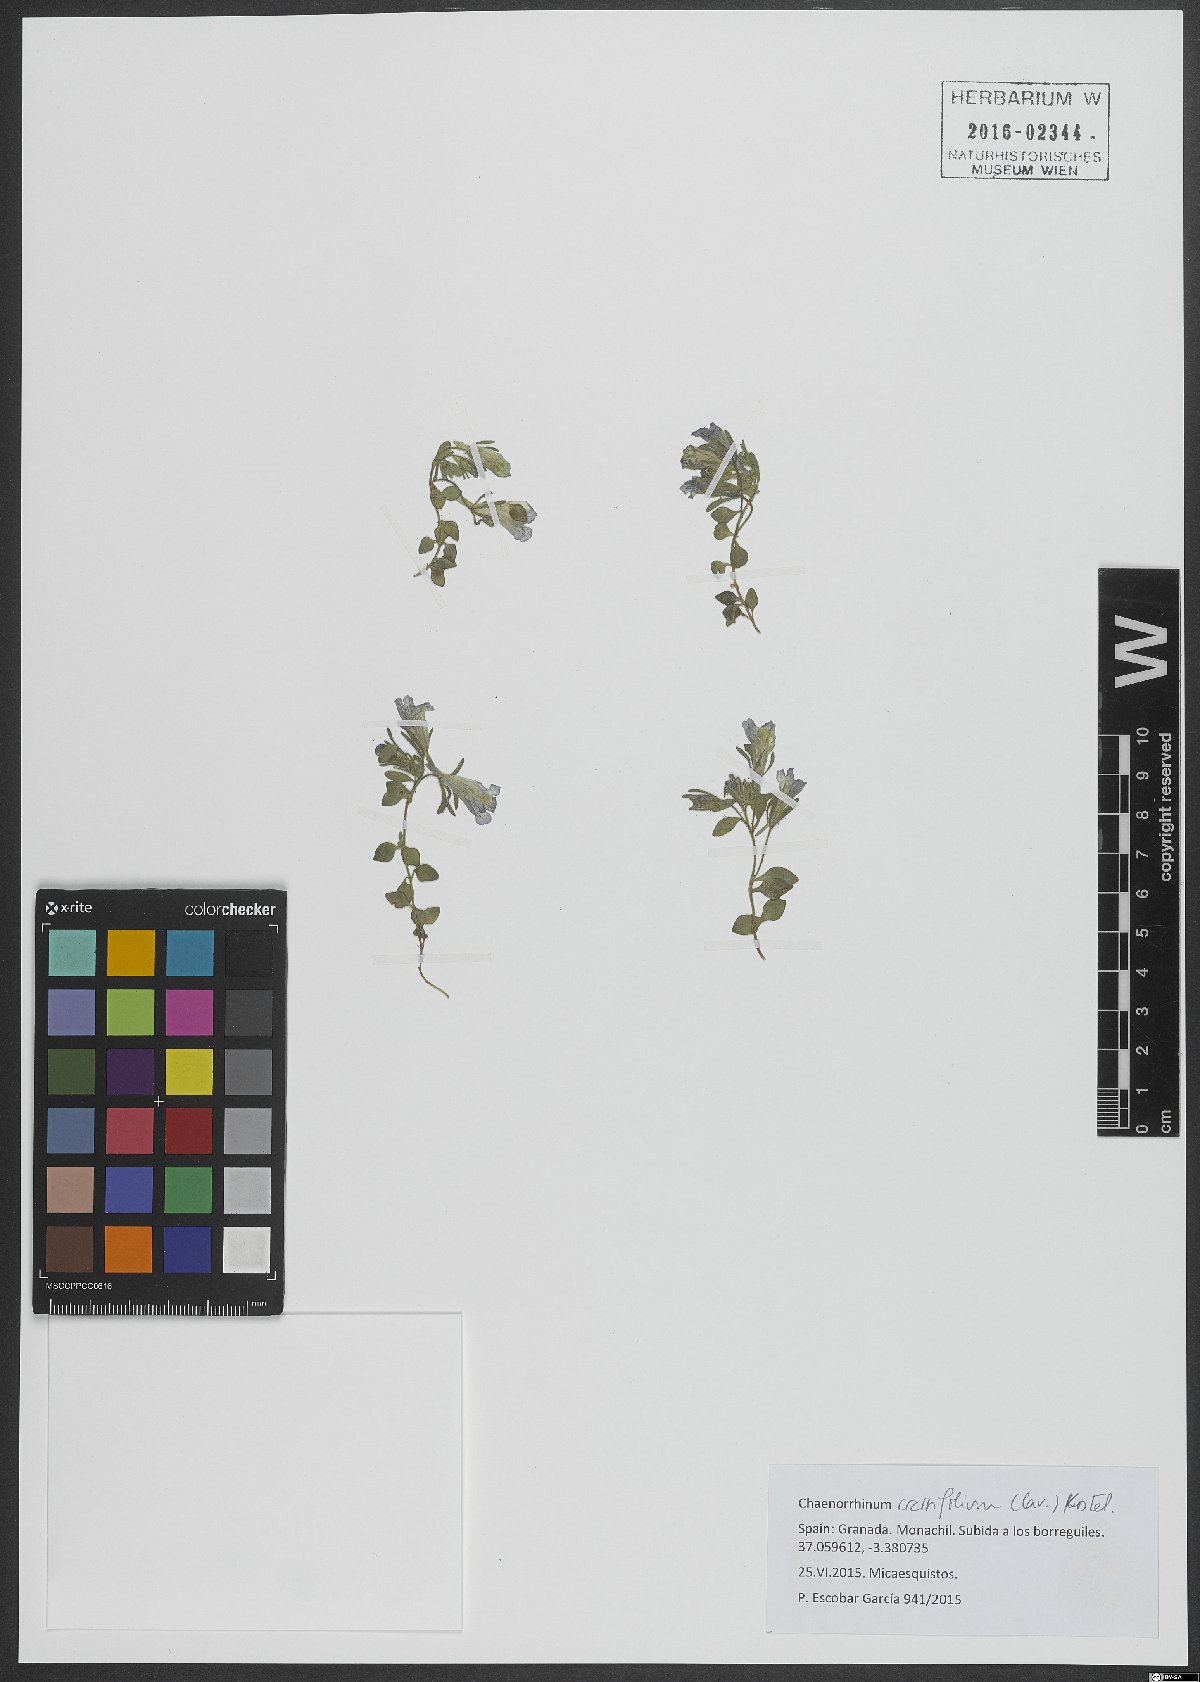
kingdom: Plantae
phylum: Tracheophyta
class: Magnoliopsida
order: Lamiales
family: Plantaginaceae
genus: Chaenorhinum
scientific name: Chaenorhinum crassifolium
